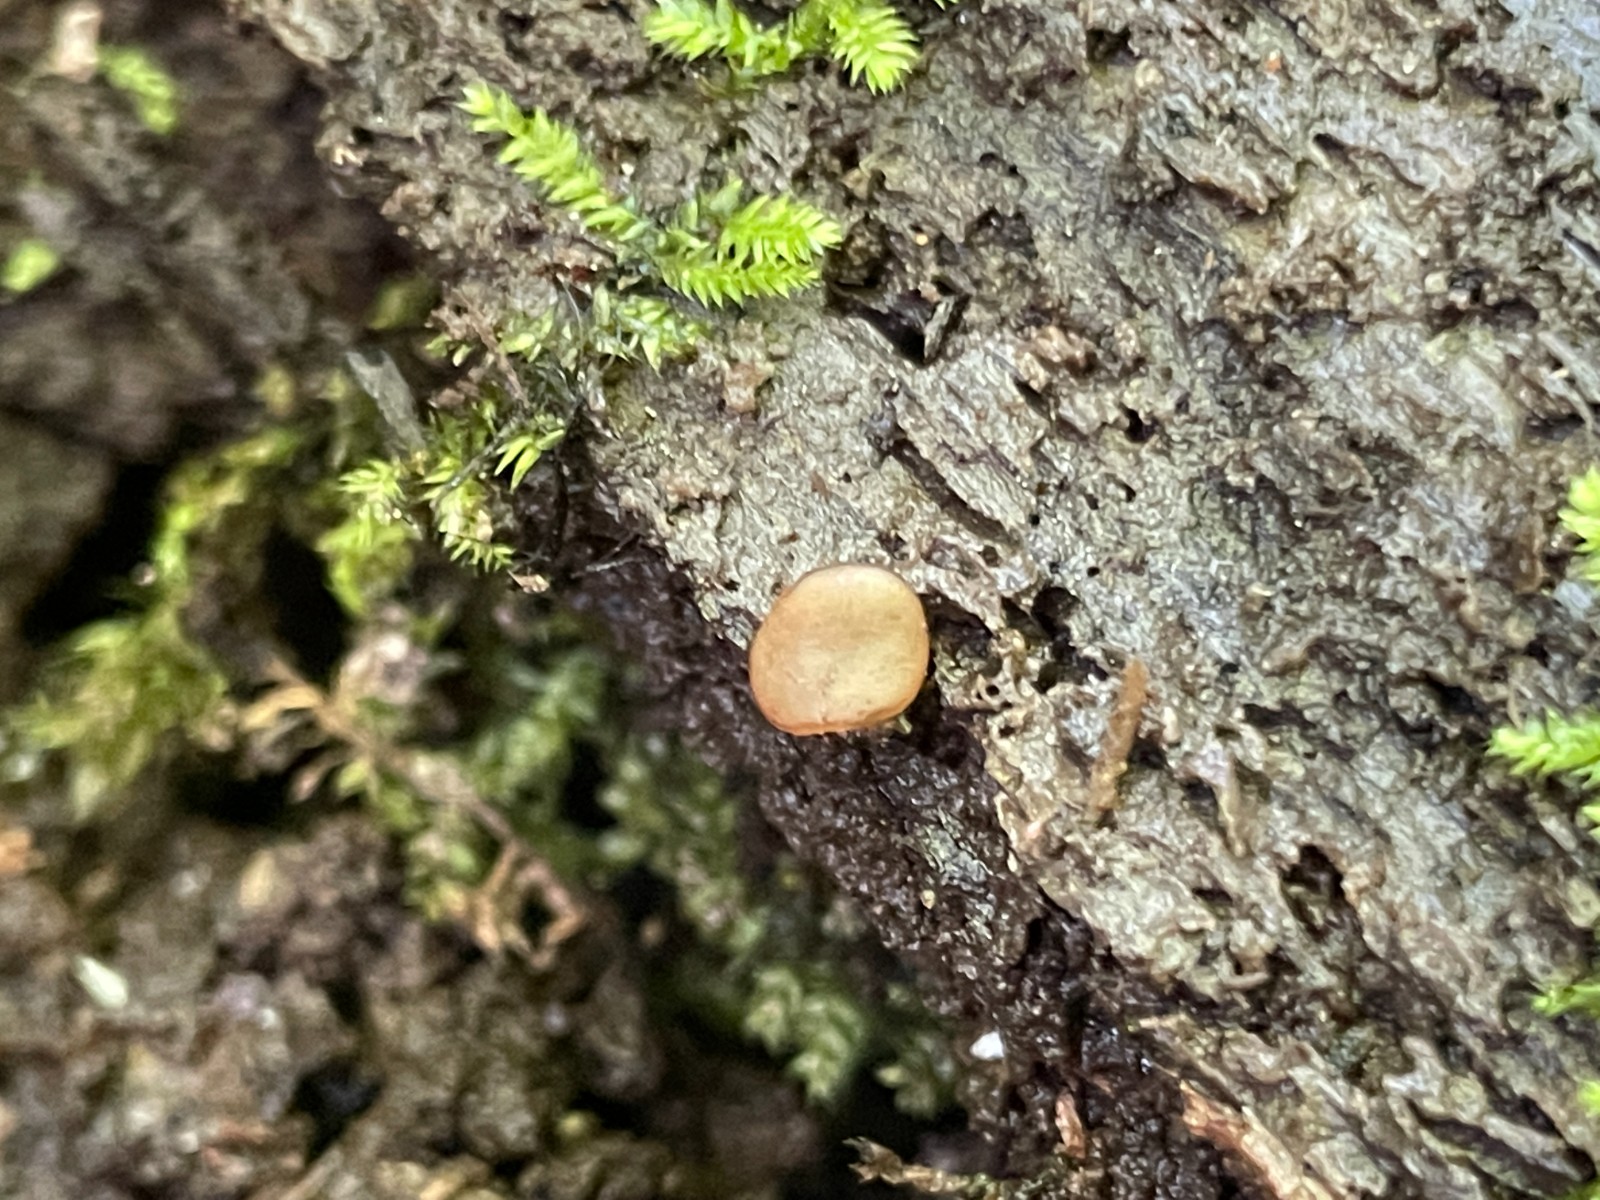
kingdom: Fungi
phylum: Ascomycota
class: Pezizomycetes
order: Pezizales
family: Pezizaceae
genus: Adelphella
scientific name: Adelphella babingtonii
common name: almindelig bækbæger
